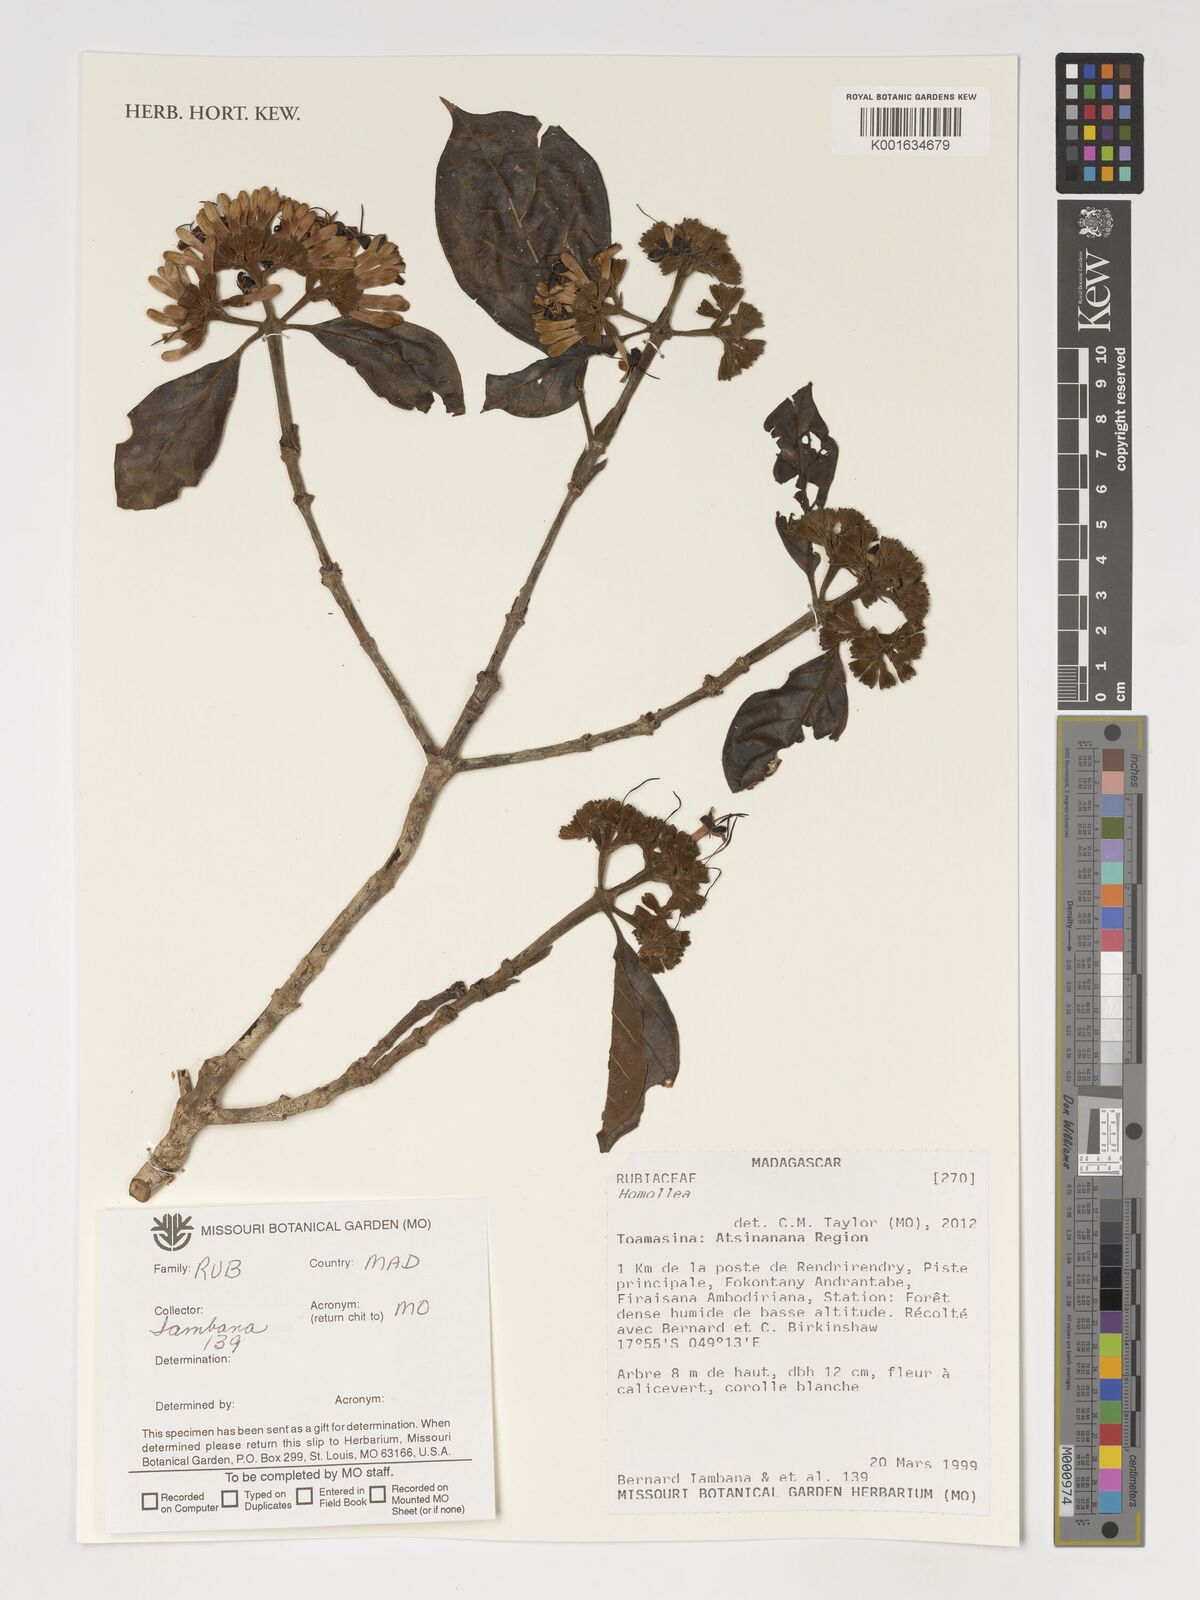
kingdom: Plantae
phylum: Tracheophyta
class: Magnoliopsida
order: Gentianales
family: Rubiaceae
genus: Homollea
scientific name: Homollea
